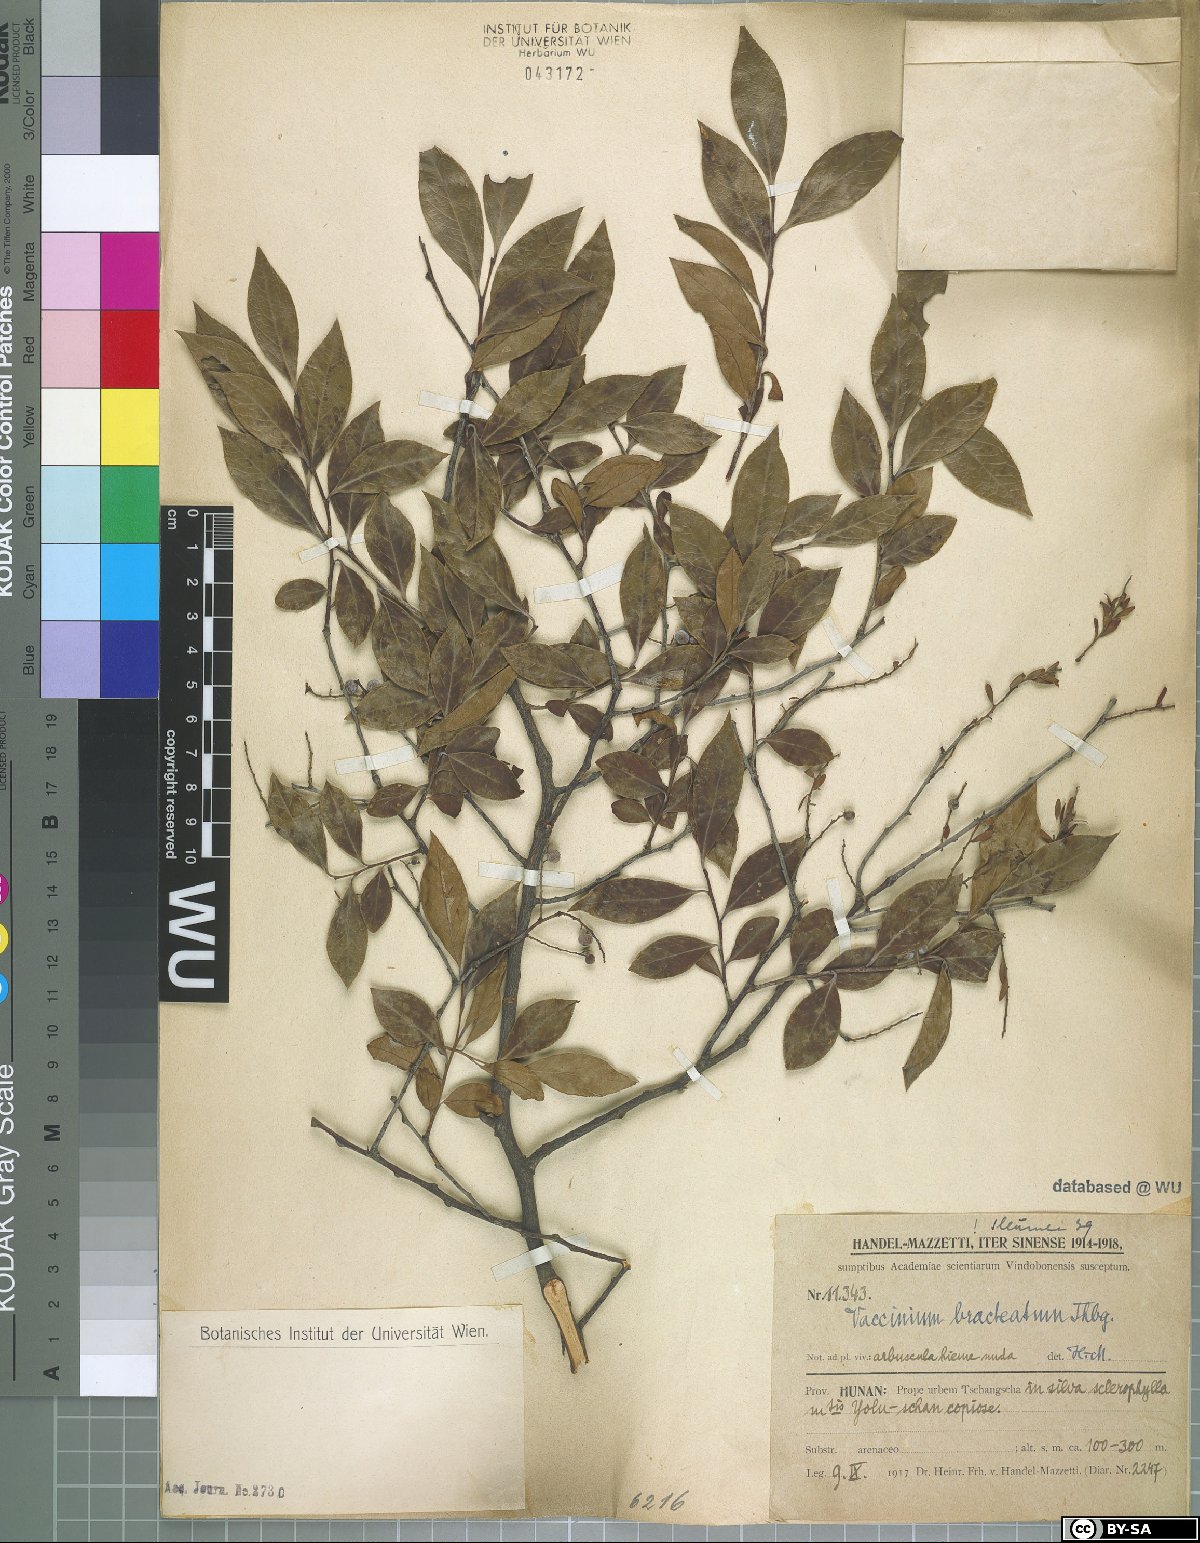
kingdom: Plantae
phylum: Tracheophyta
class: Magnoliopsida
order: Ericales
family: Ericaceae
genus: Vaccinium
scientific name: Vaccinium bracteatum
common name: Sea bilberry
